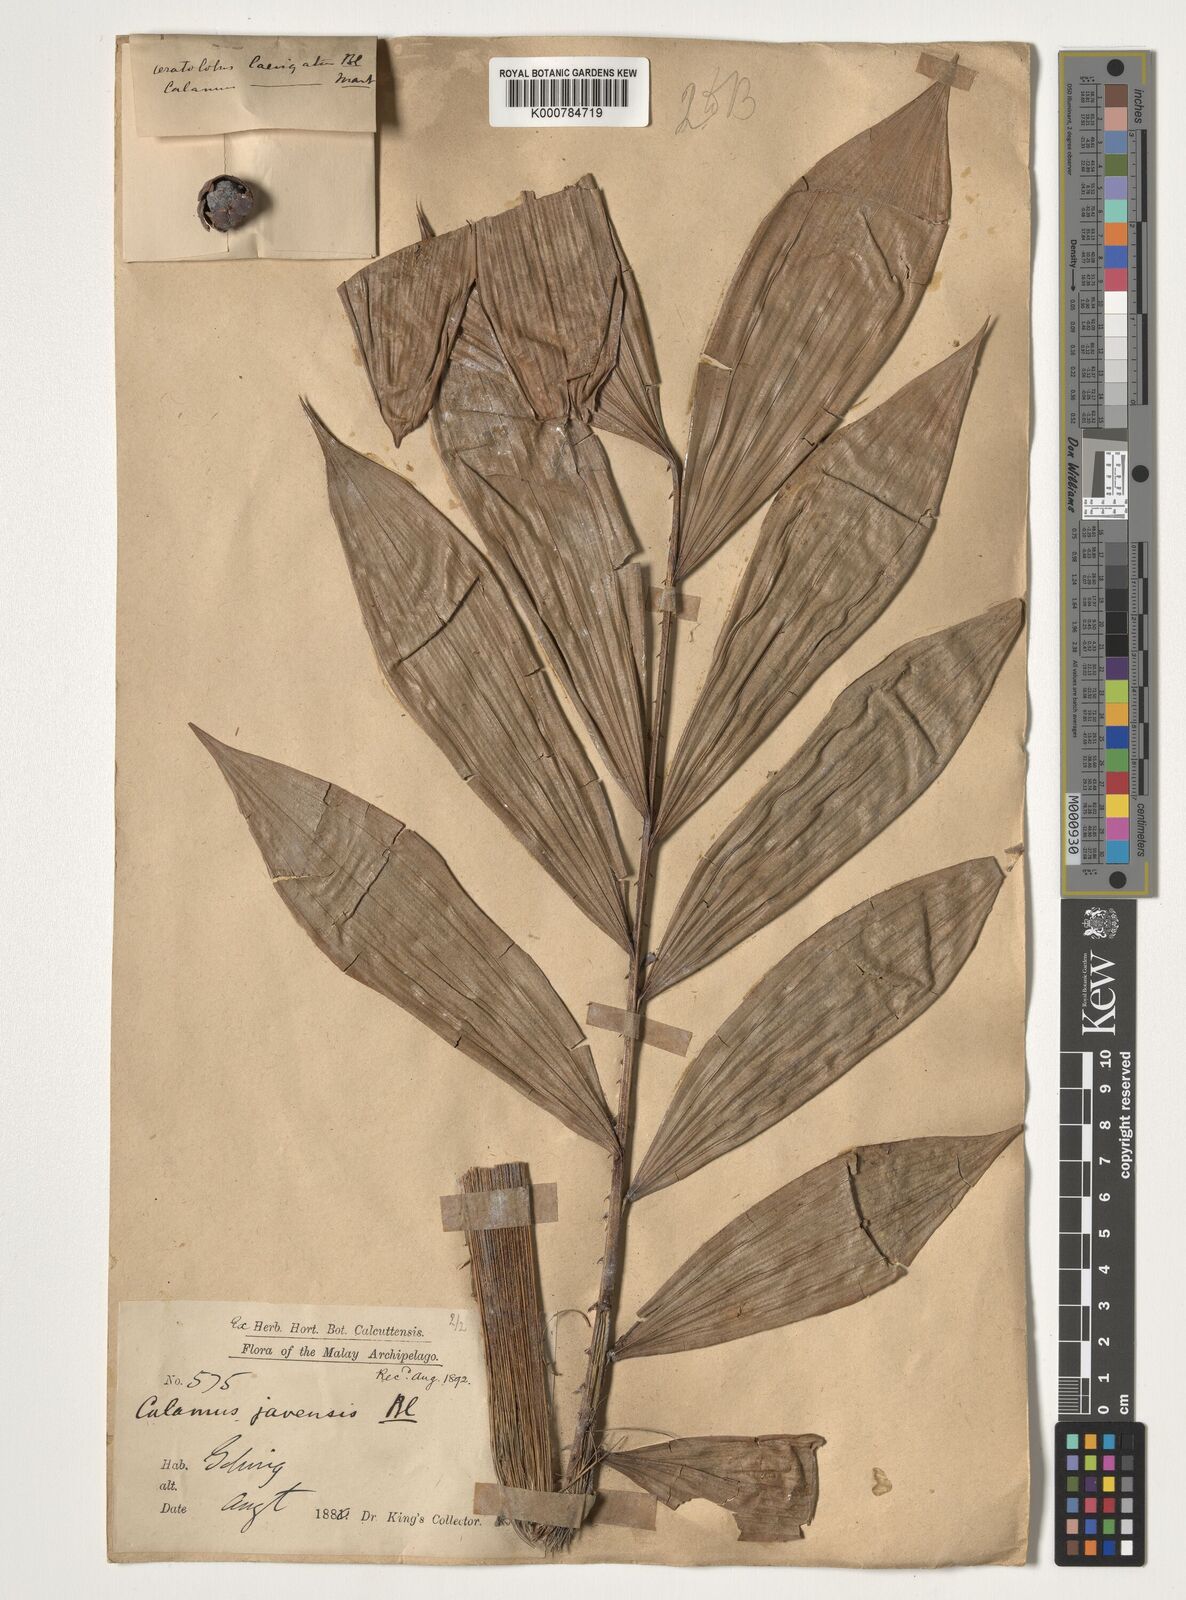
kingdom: Plantae
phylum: Tracheophyta
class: Liliopsida
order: Arecales
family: Arecaceae
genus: Calamus
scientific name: Calamus javensis
